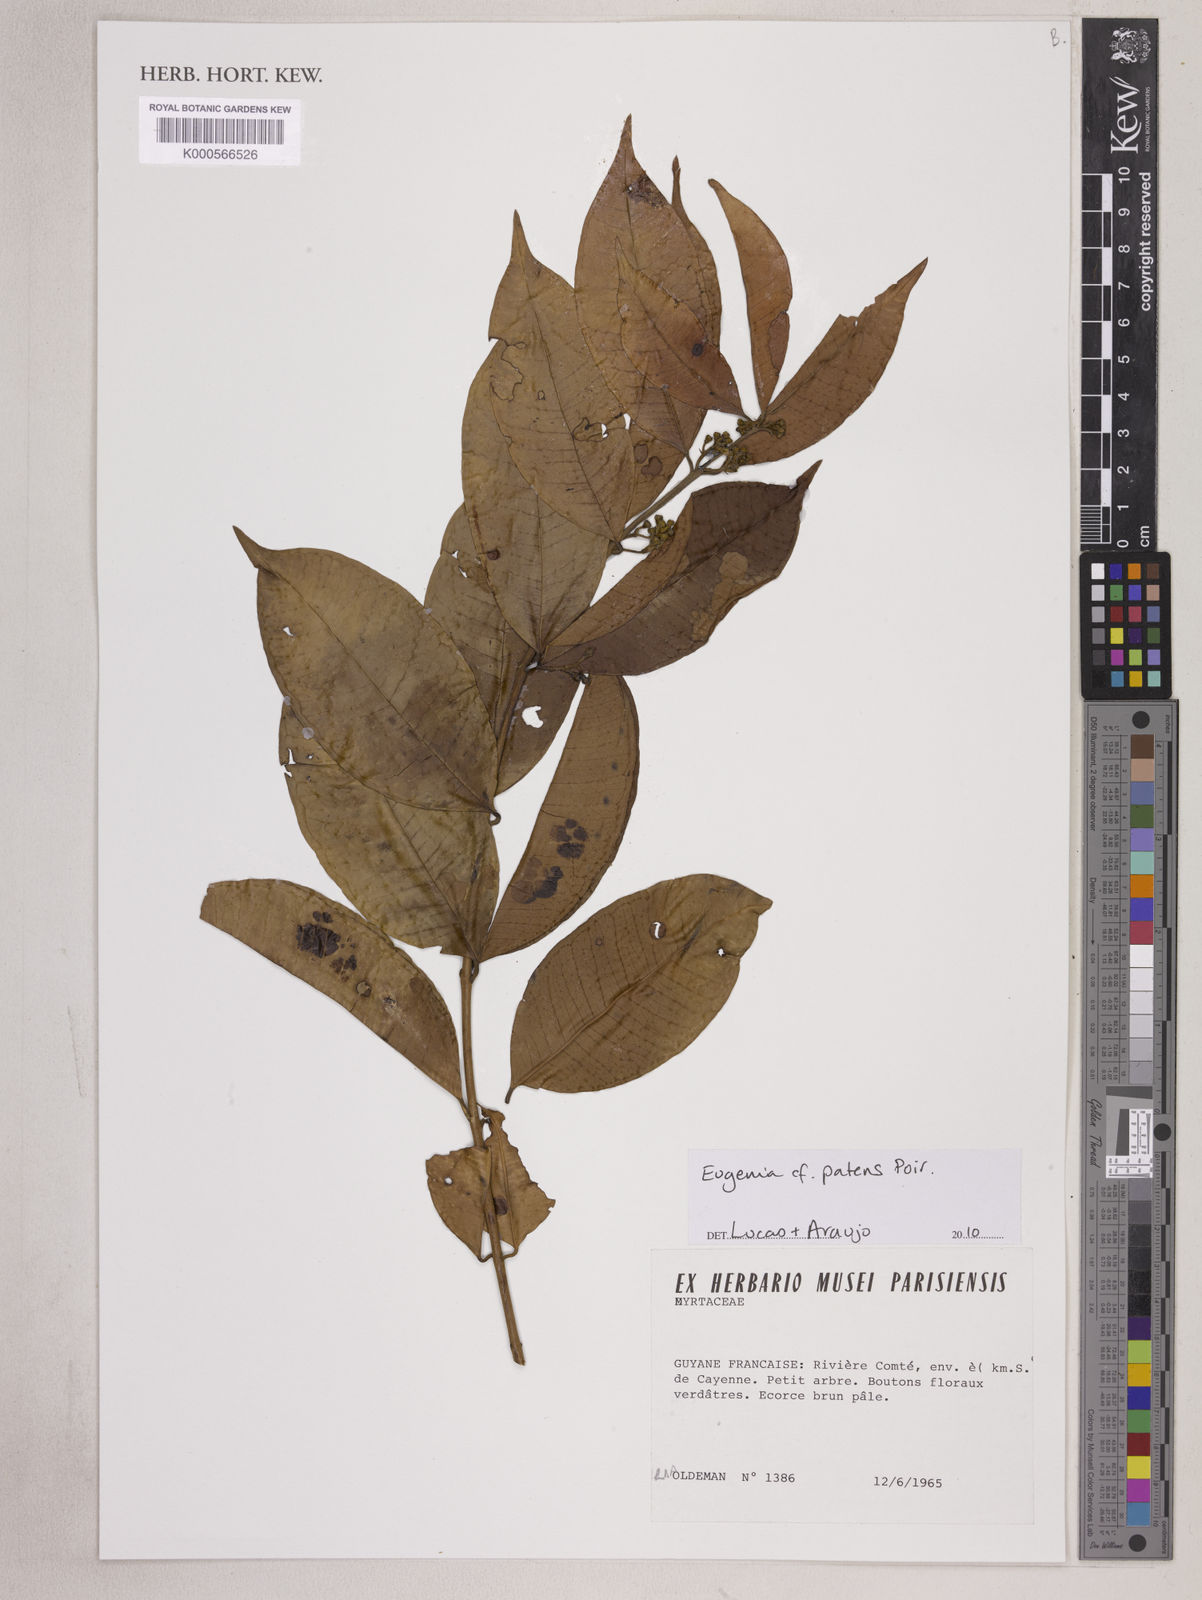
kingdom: Plantae
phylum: Tracheophyta
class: Magnoliopsida
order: Myrtales
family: Myrtaceae
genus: Eugenia
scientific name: Eugenia patens
